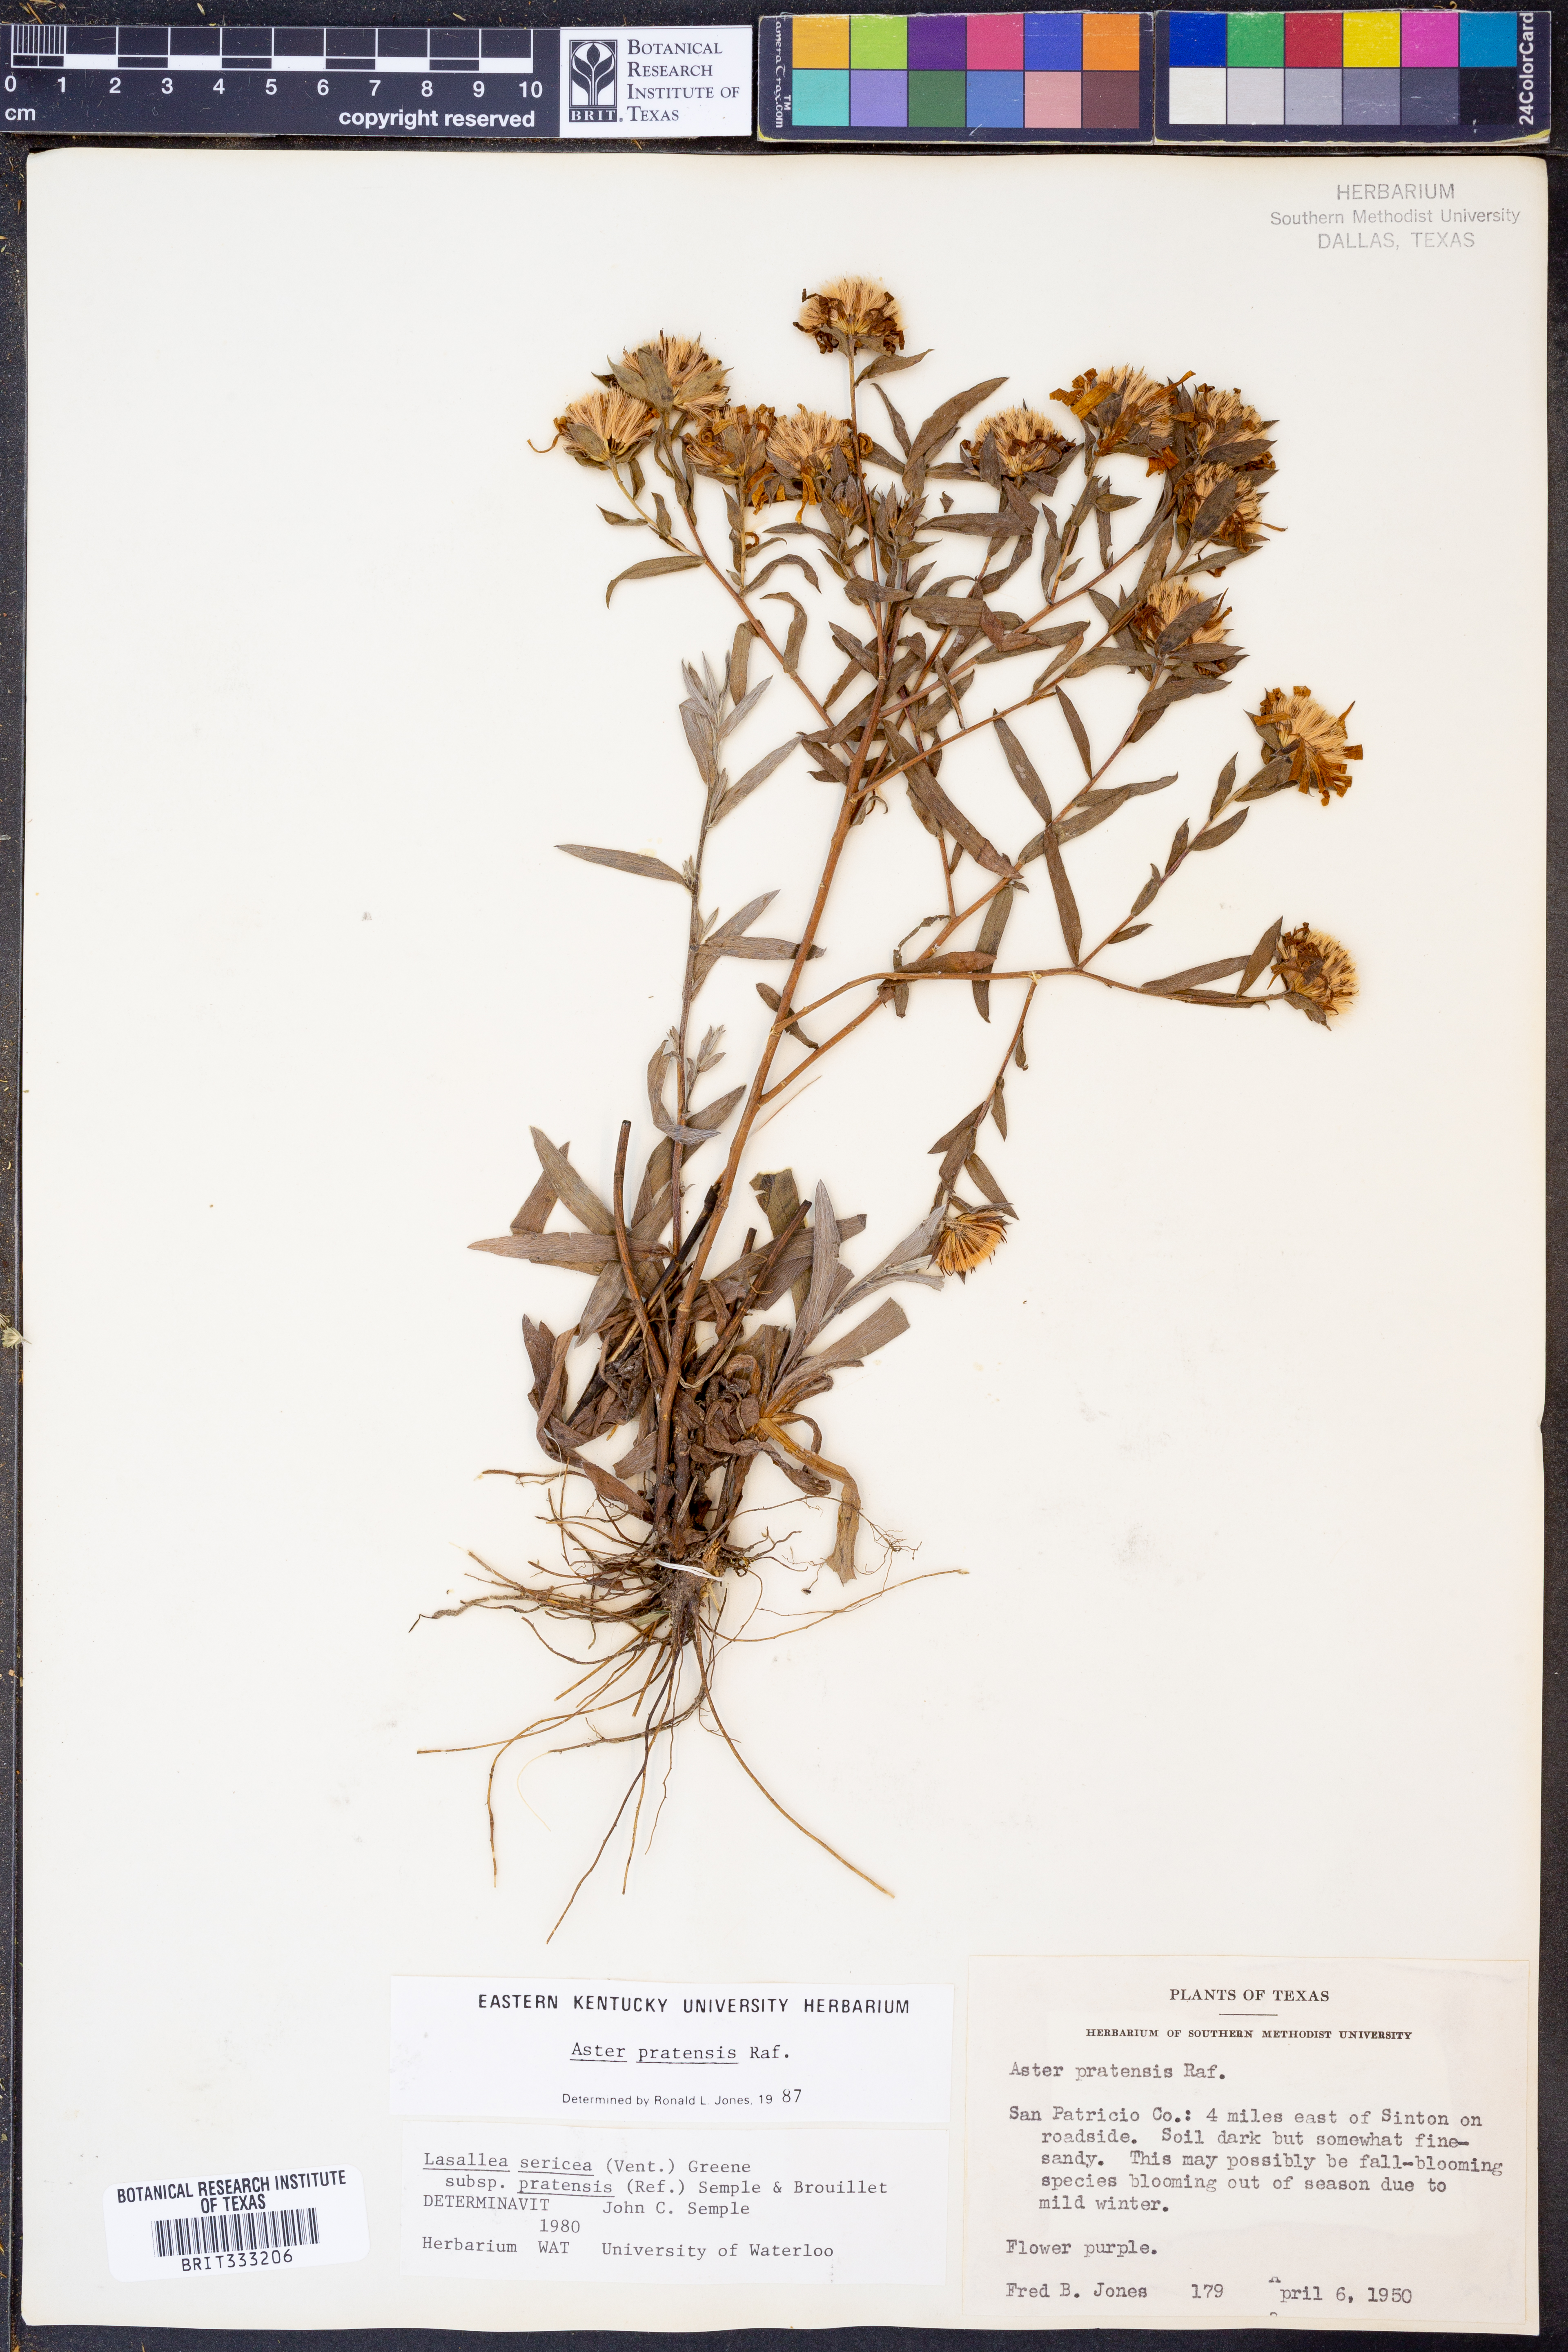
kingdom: Plantae
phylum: Tracheophyta
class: Magnoliopsida
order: Asterales
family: Asteraceae
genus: Symphyotrichum
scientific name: Symphyotrichum pratense
